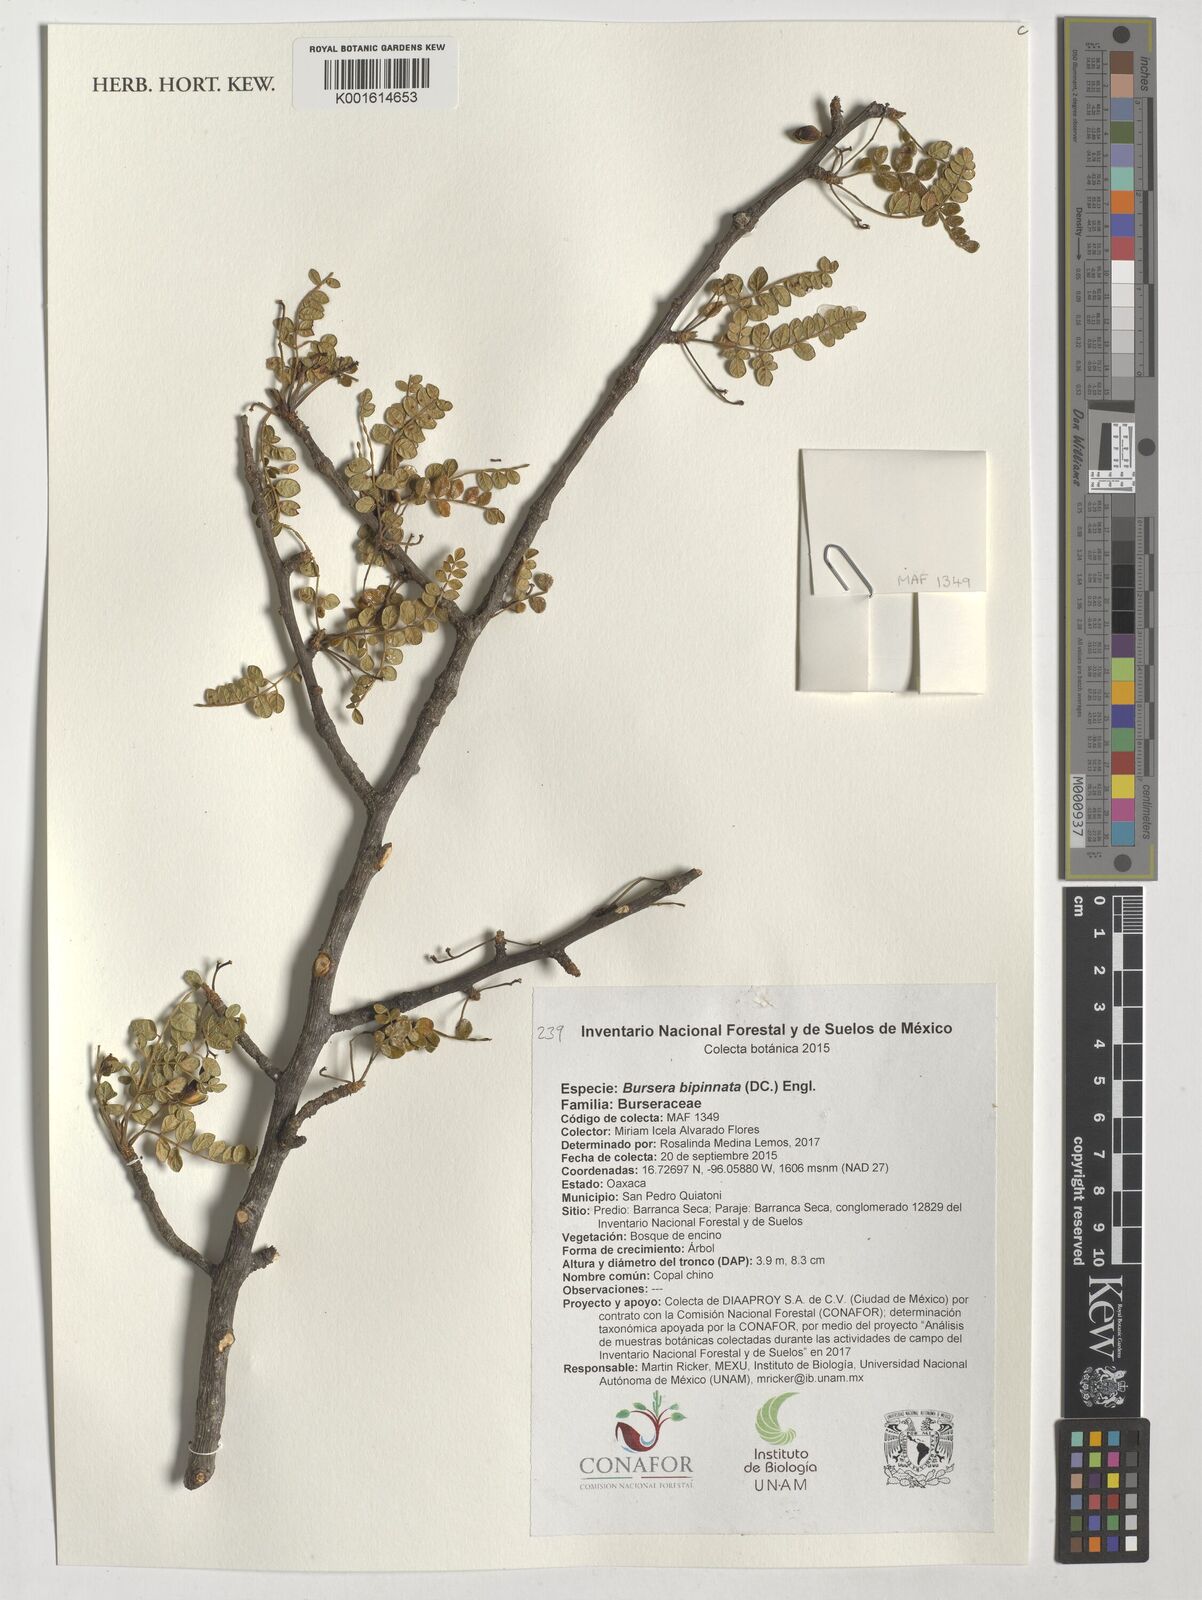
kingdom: Plantae
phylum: Tracheophyta
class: Magnoliopsida
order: Sapindales
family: Burseraceae
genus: Bursera
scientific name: Bursera bipinnata
